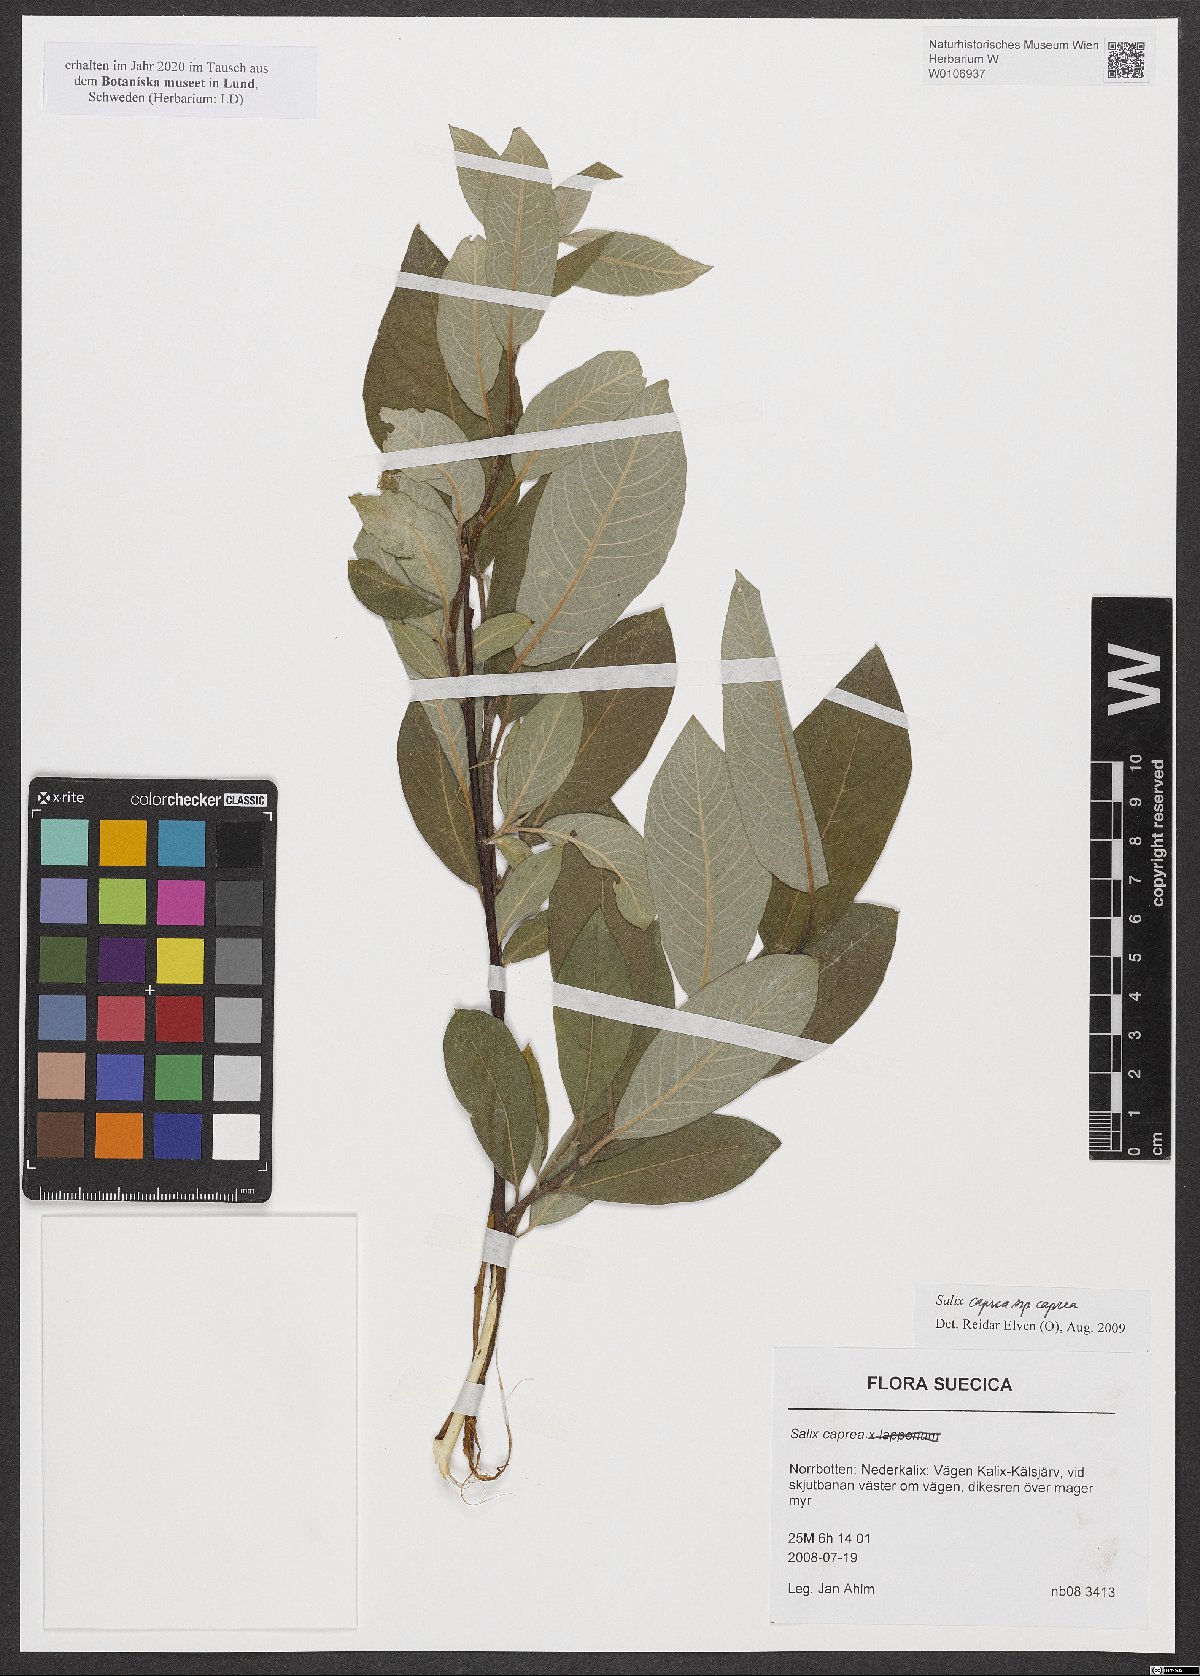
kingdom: Plantae
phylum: Tracheophyta
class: Magnoliopsida
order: Malpighiales
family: Salicaceae
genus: Salix
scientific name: Salix caprea
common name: Goat willow
